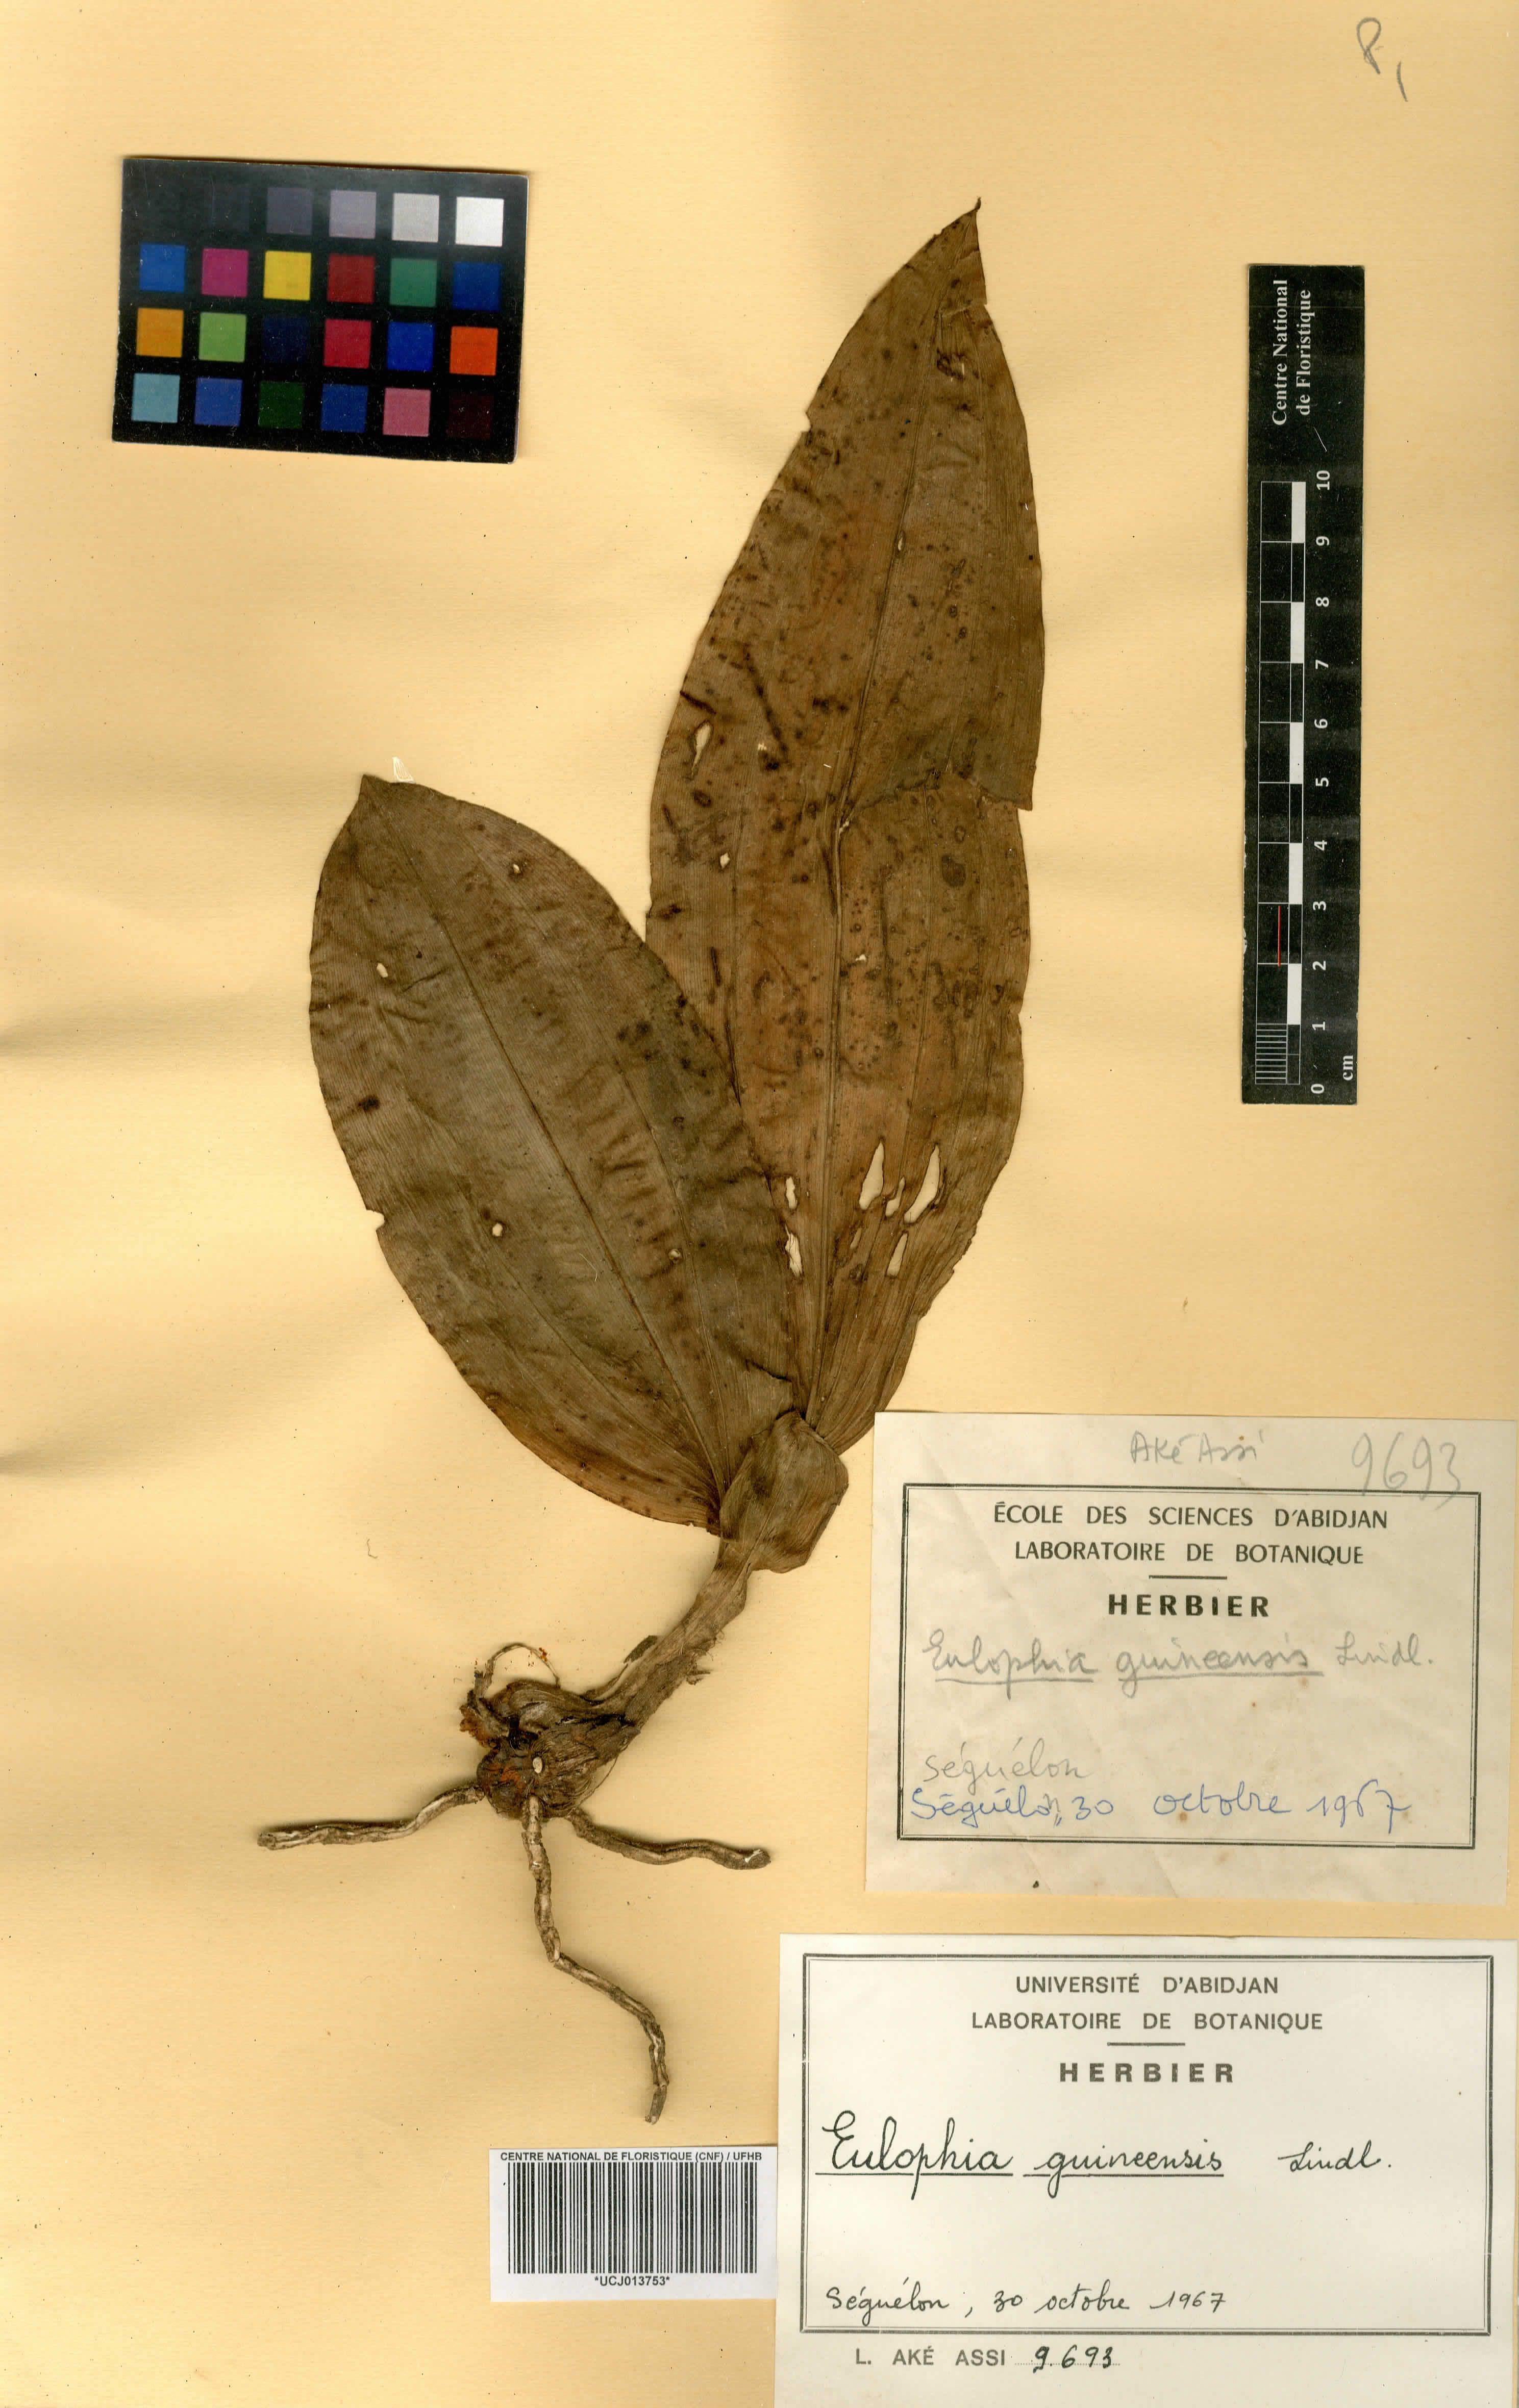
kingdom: Plantae
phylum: Tracheophyta
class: Liliopsida
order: Asparagales
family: Orchidaceae
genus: Eulophia
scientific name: Eulophia guineensis
